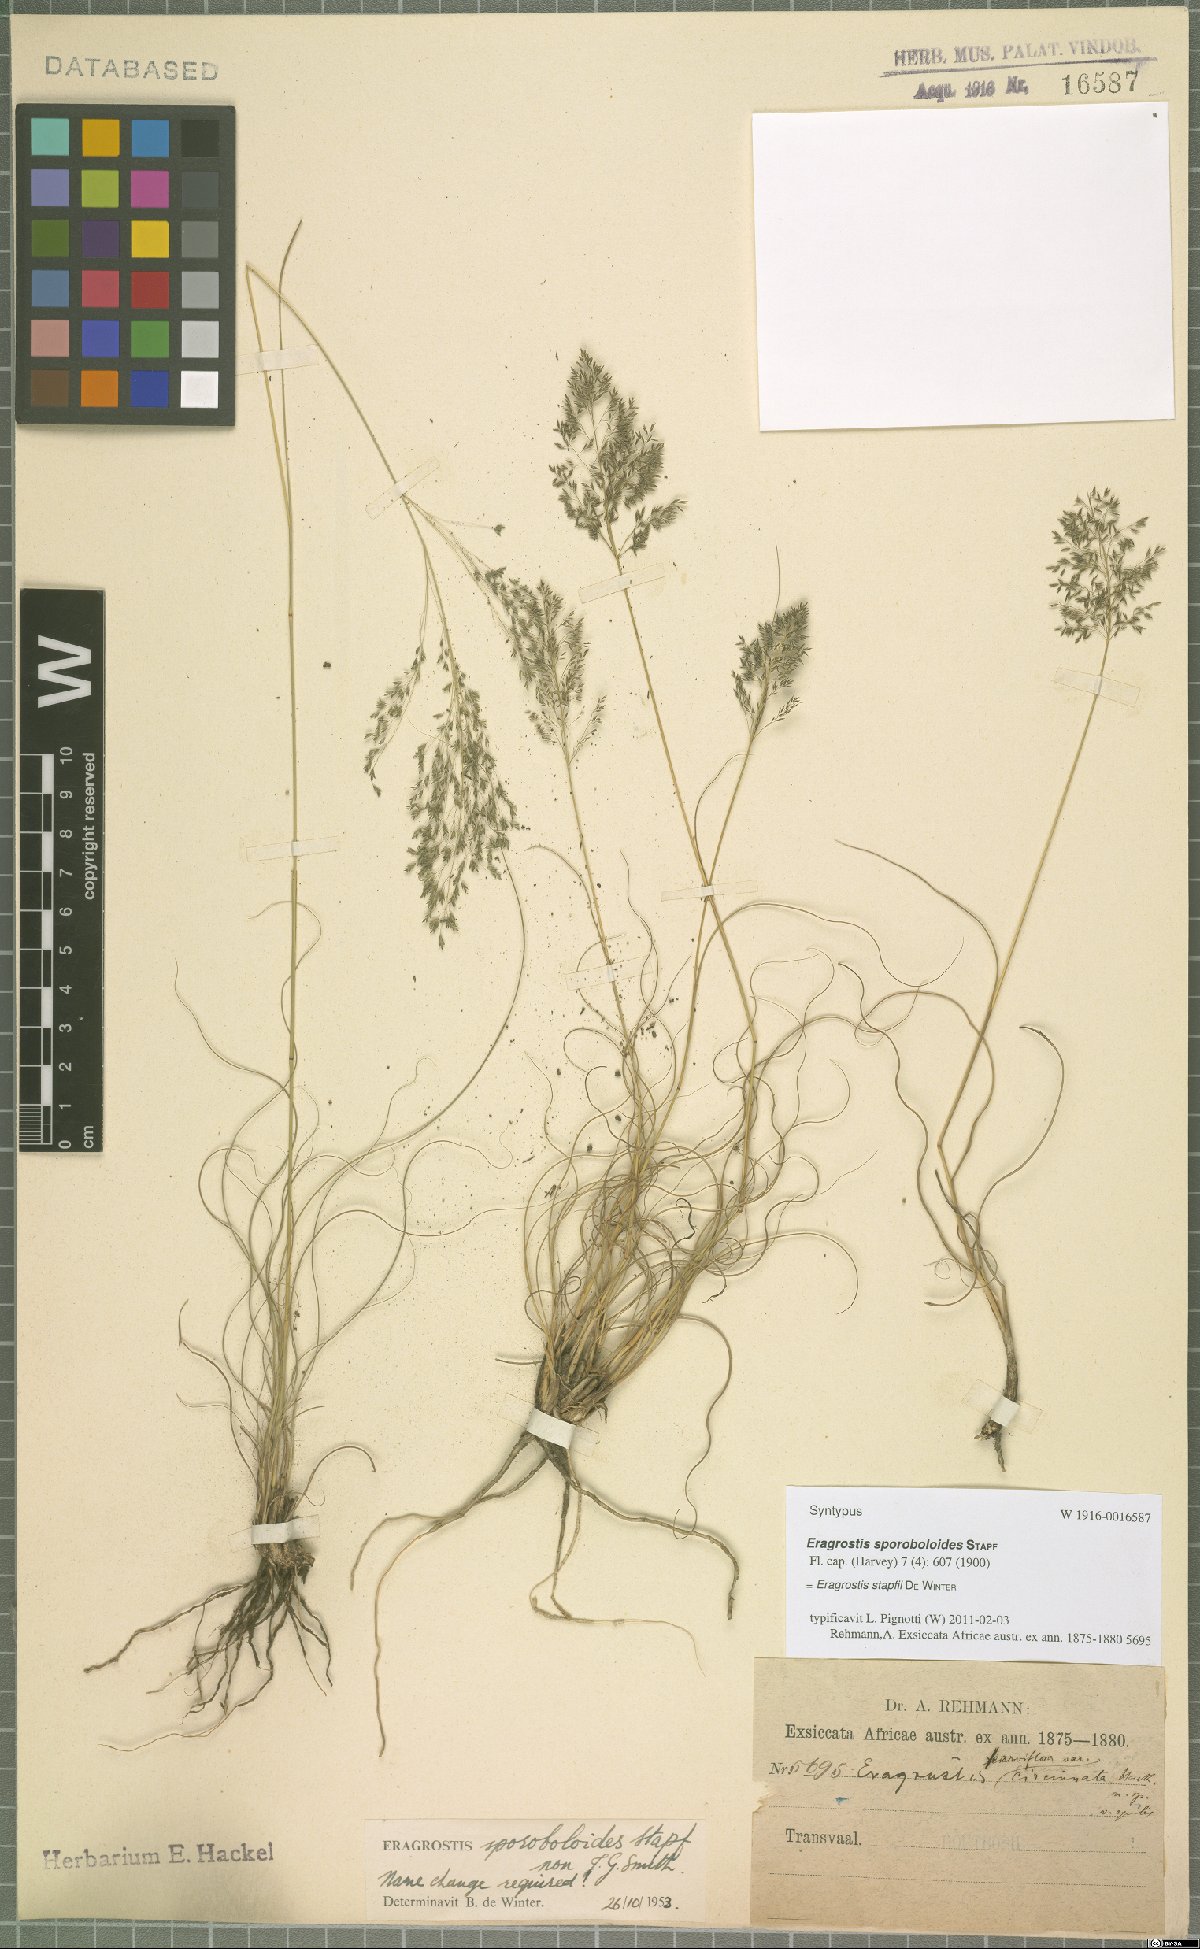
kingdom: Plantae
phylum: Tracheophyta
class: Liliopsida
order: Poales
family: Poaceae
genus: Eragrostis
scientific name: Eragrostis stapfii
